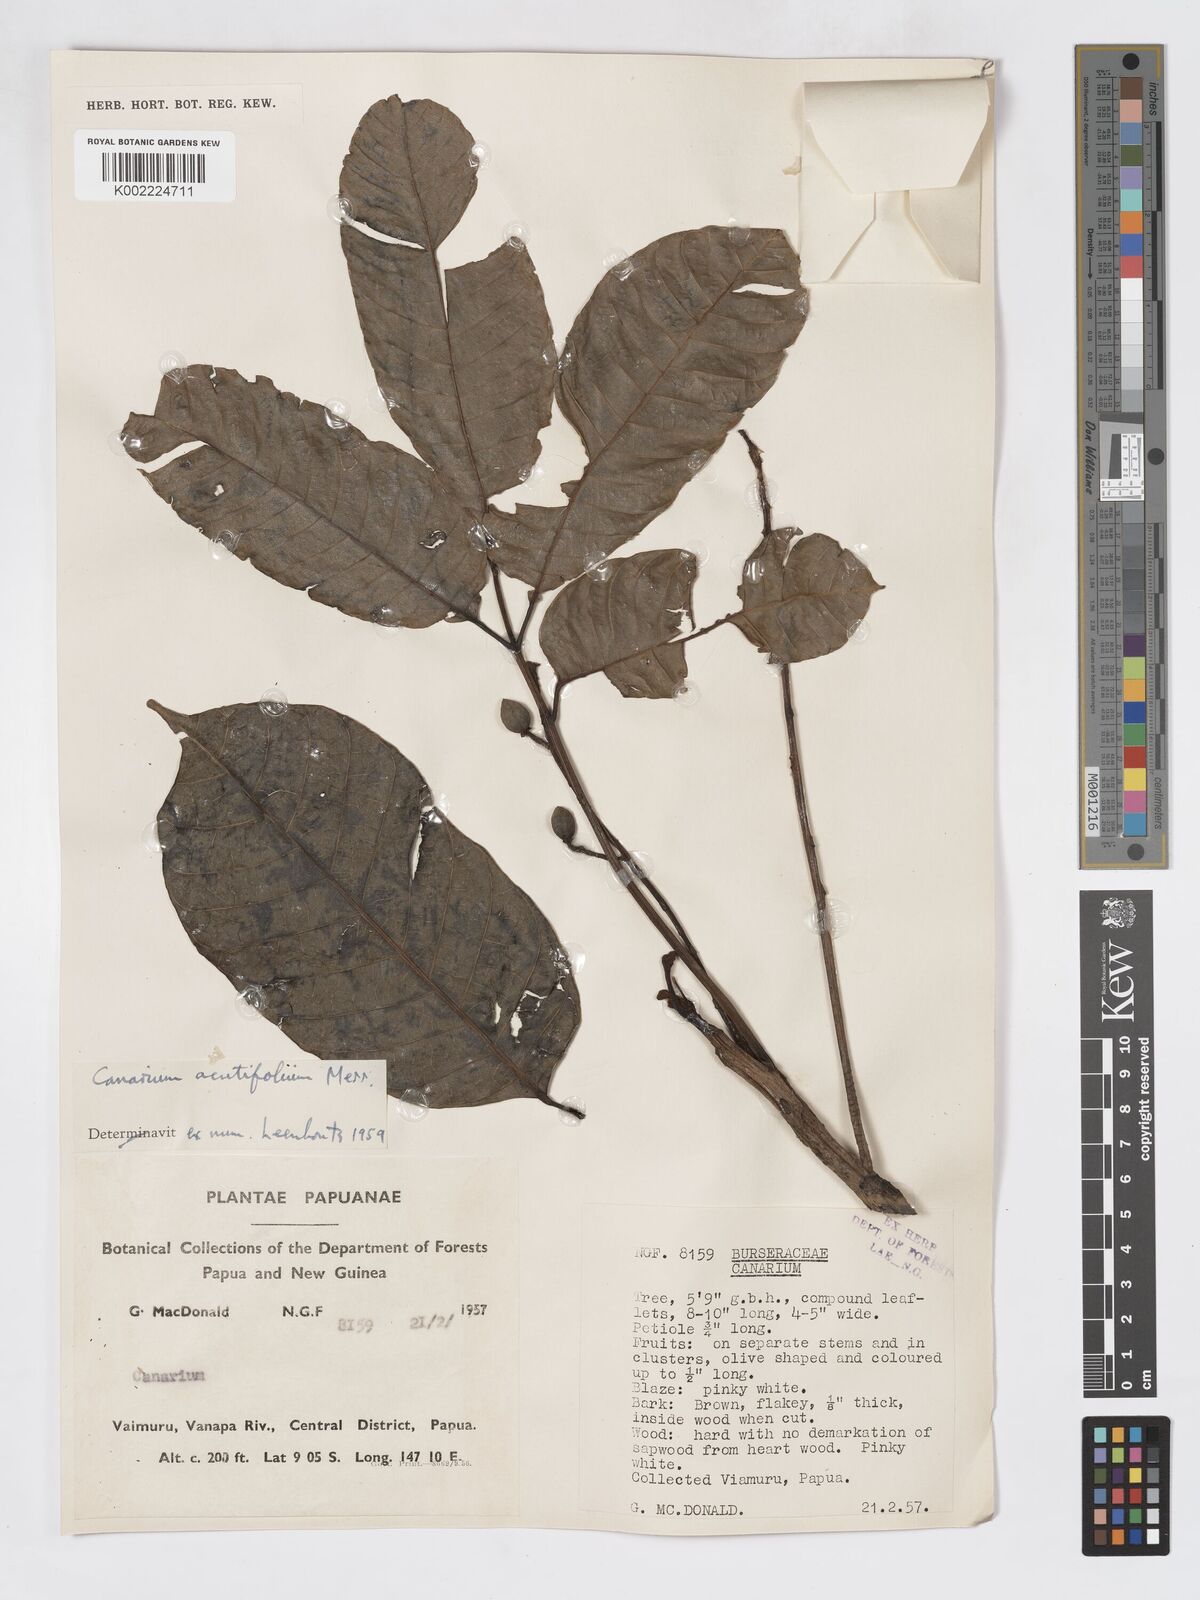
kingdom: Plantae
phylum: Tracheophyta
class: Magnoliopsida
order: Sapindales
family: Burseraceae
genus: Canarium
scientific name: Canarium acutifolium
